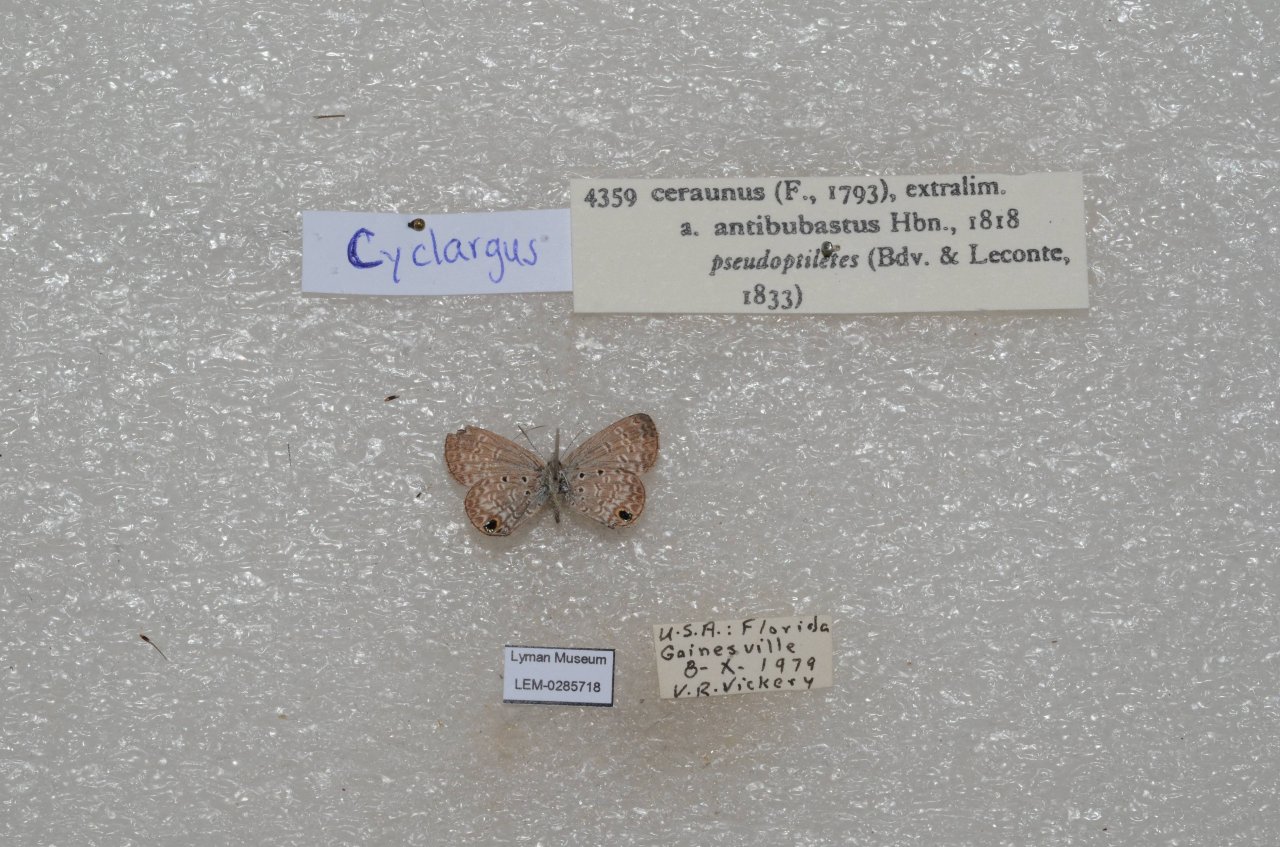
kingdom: Animalia
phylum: Arthropoda
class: Insecta
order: Lepidoptera
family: Lycaenidae
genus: Hemiargus
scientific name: Hemiargus ceraunus
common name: Ceraunus Blue
